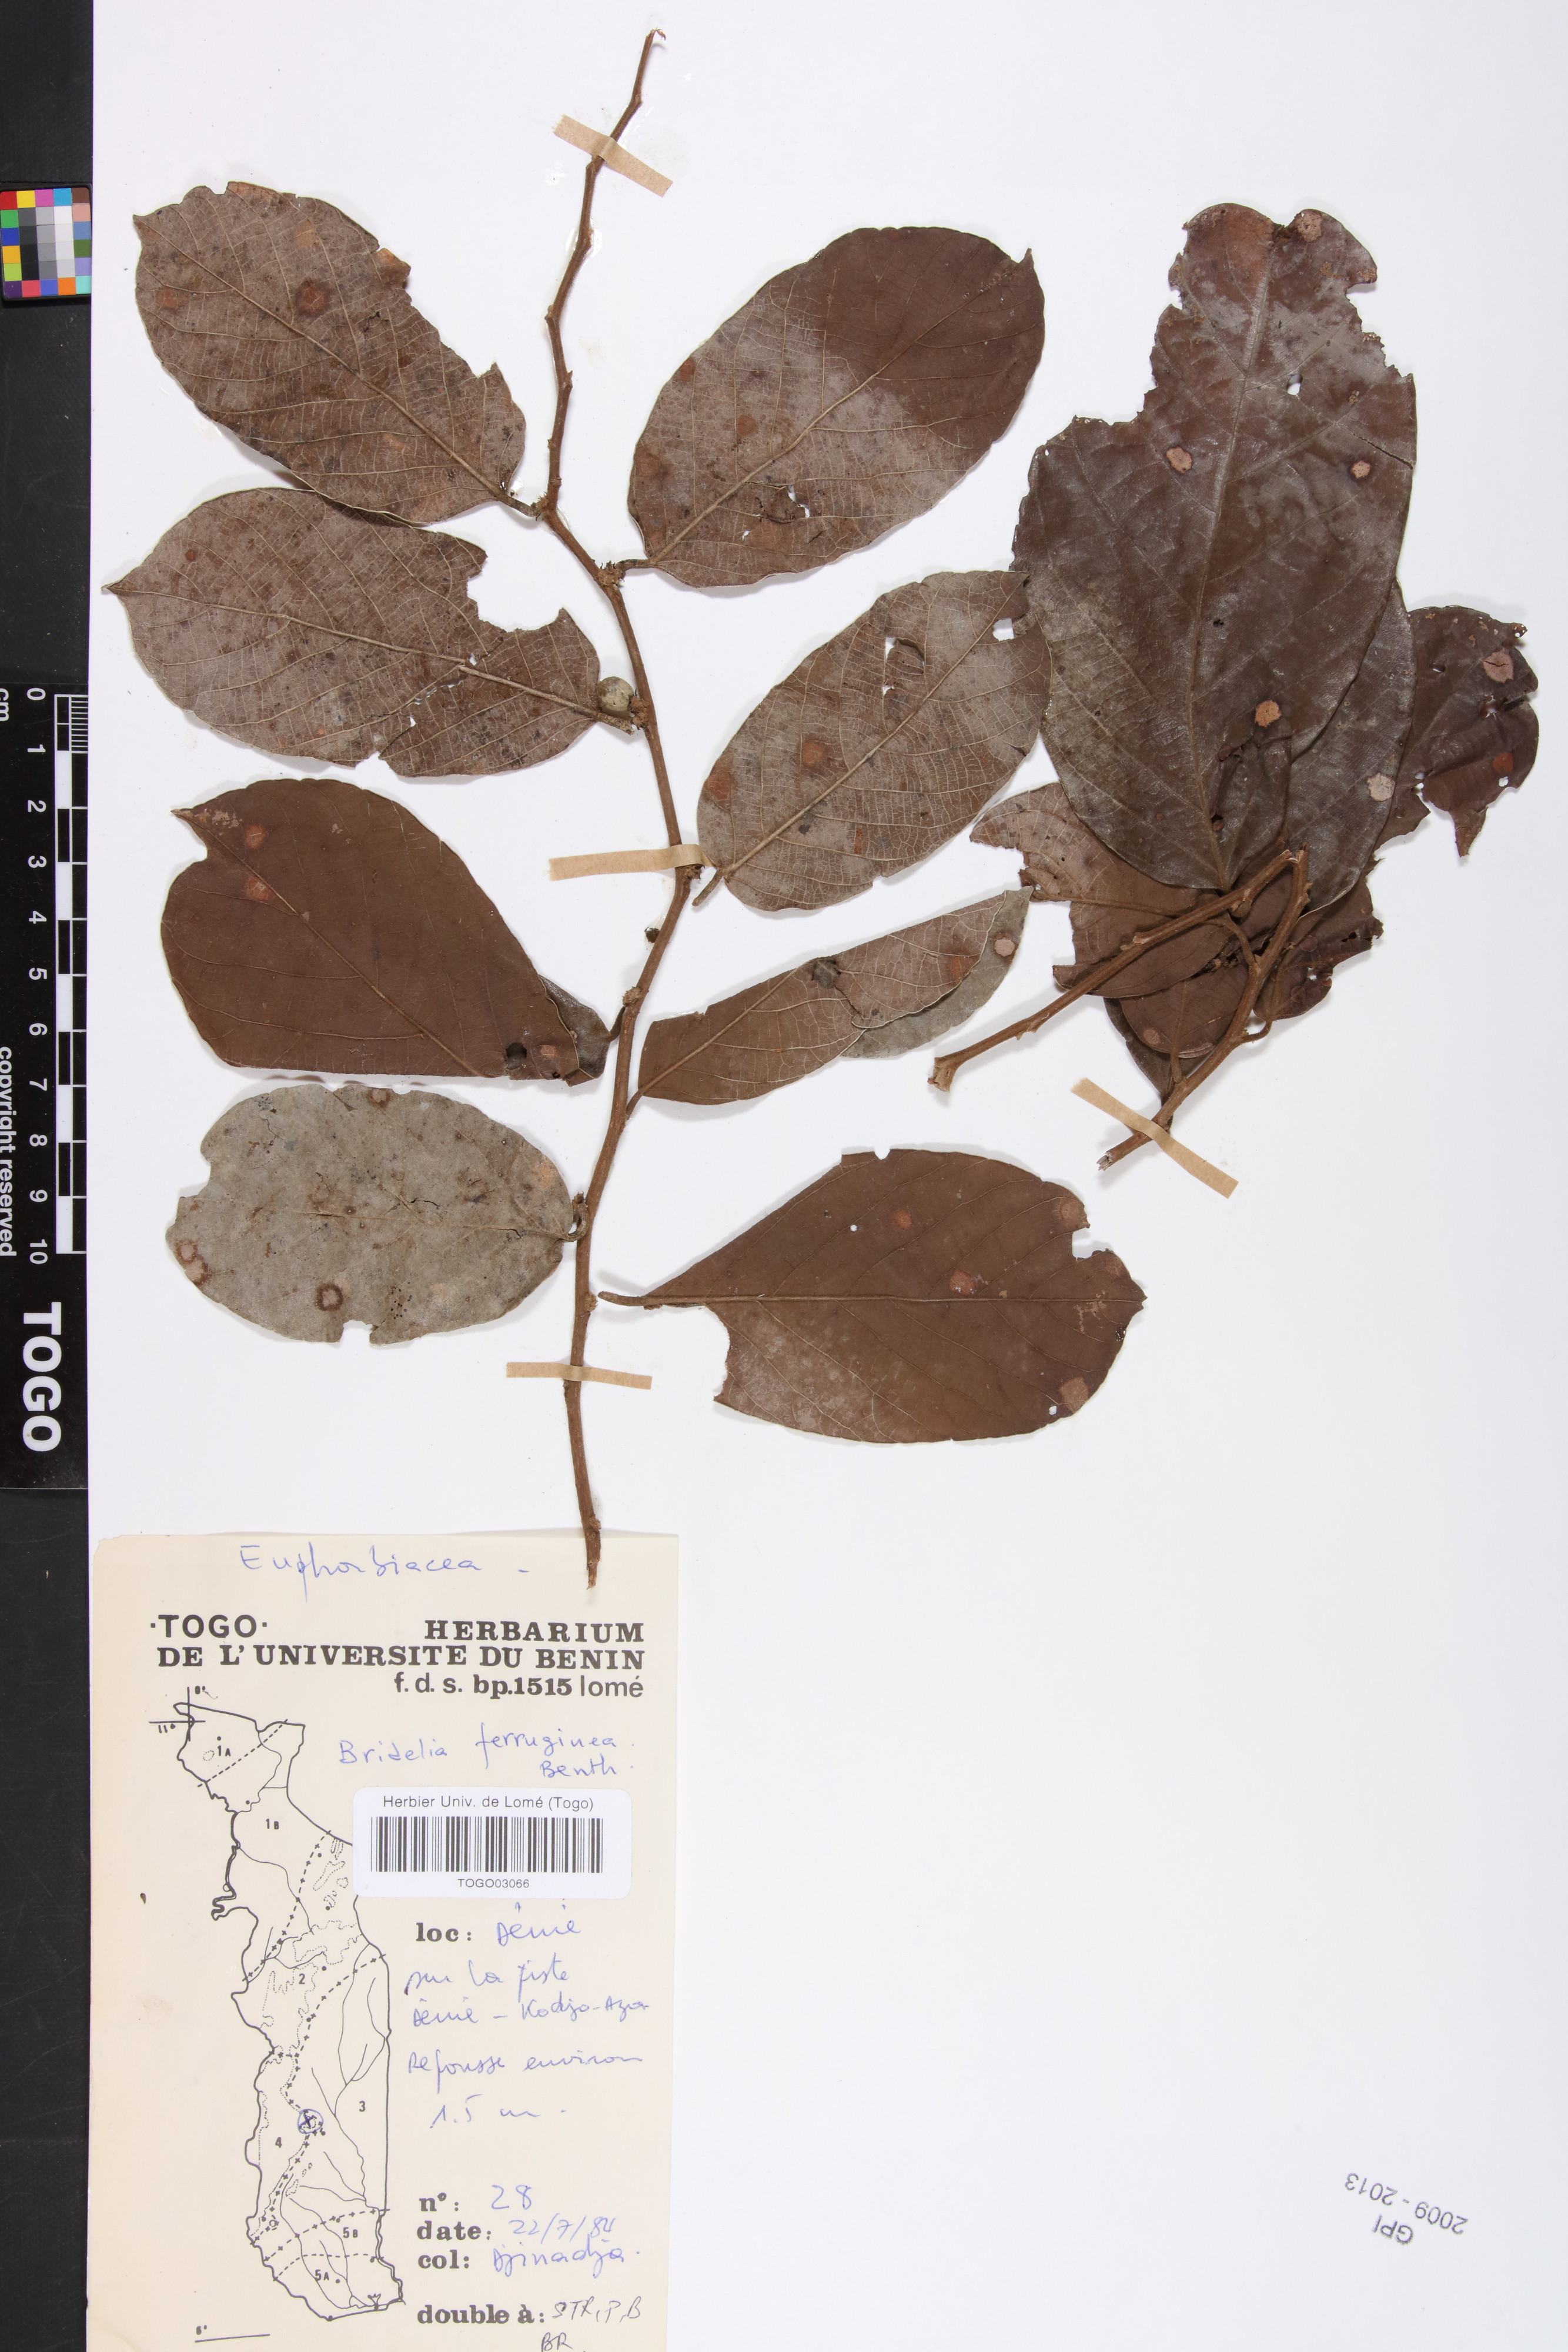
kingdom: Plantae
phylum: Tracheophyta
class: Magnoliopsida
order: Malpighiales
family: Phyllanthaceae
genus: Bridelia
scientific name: Bridelia ferruginea
